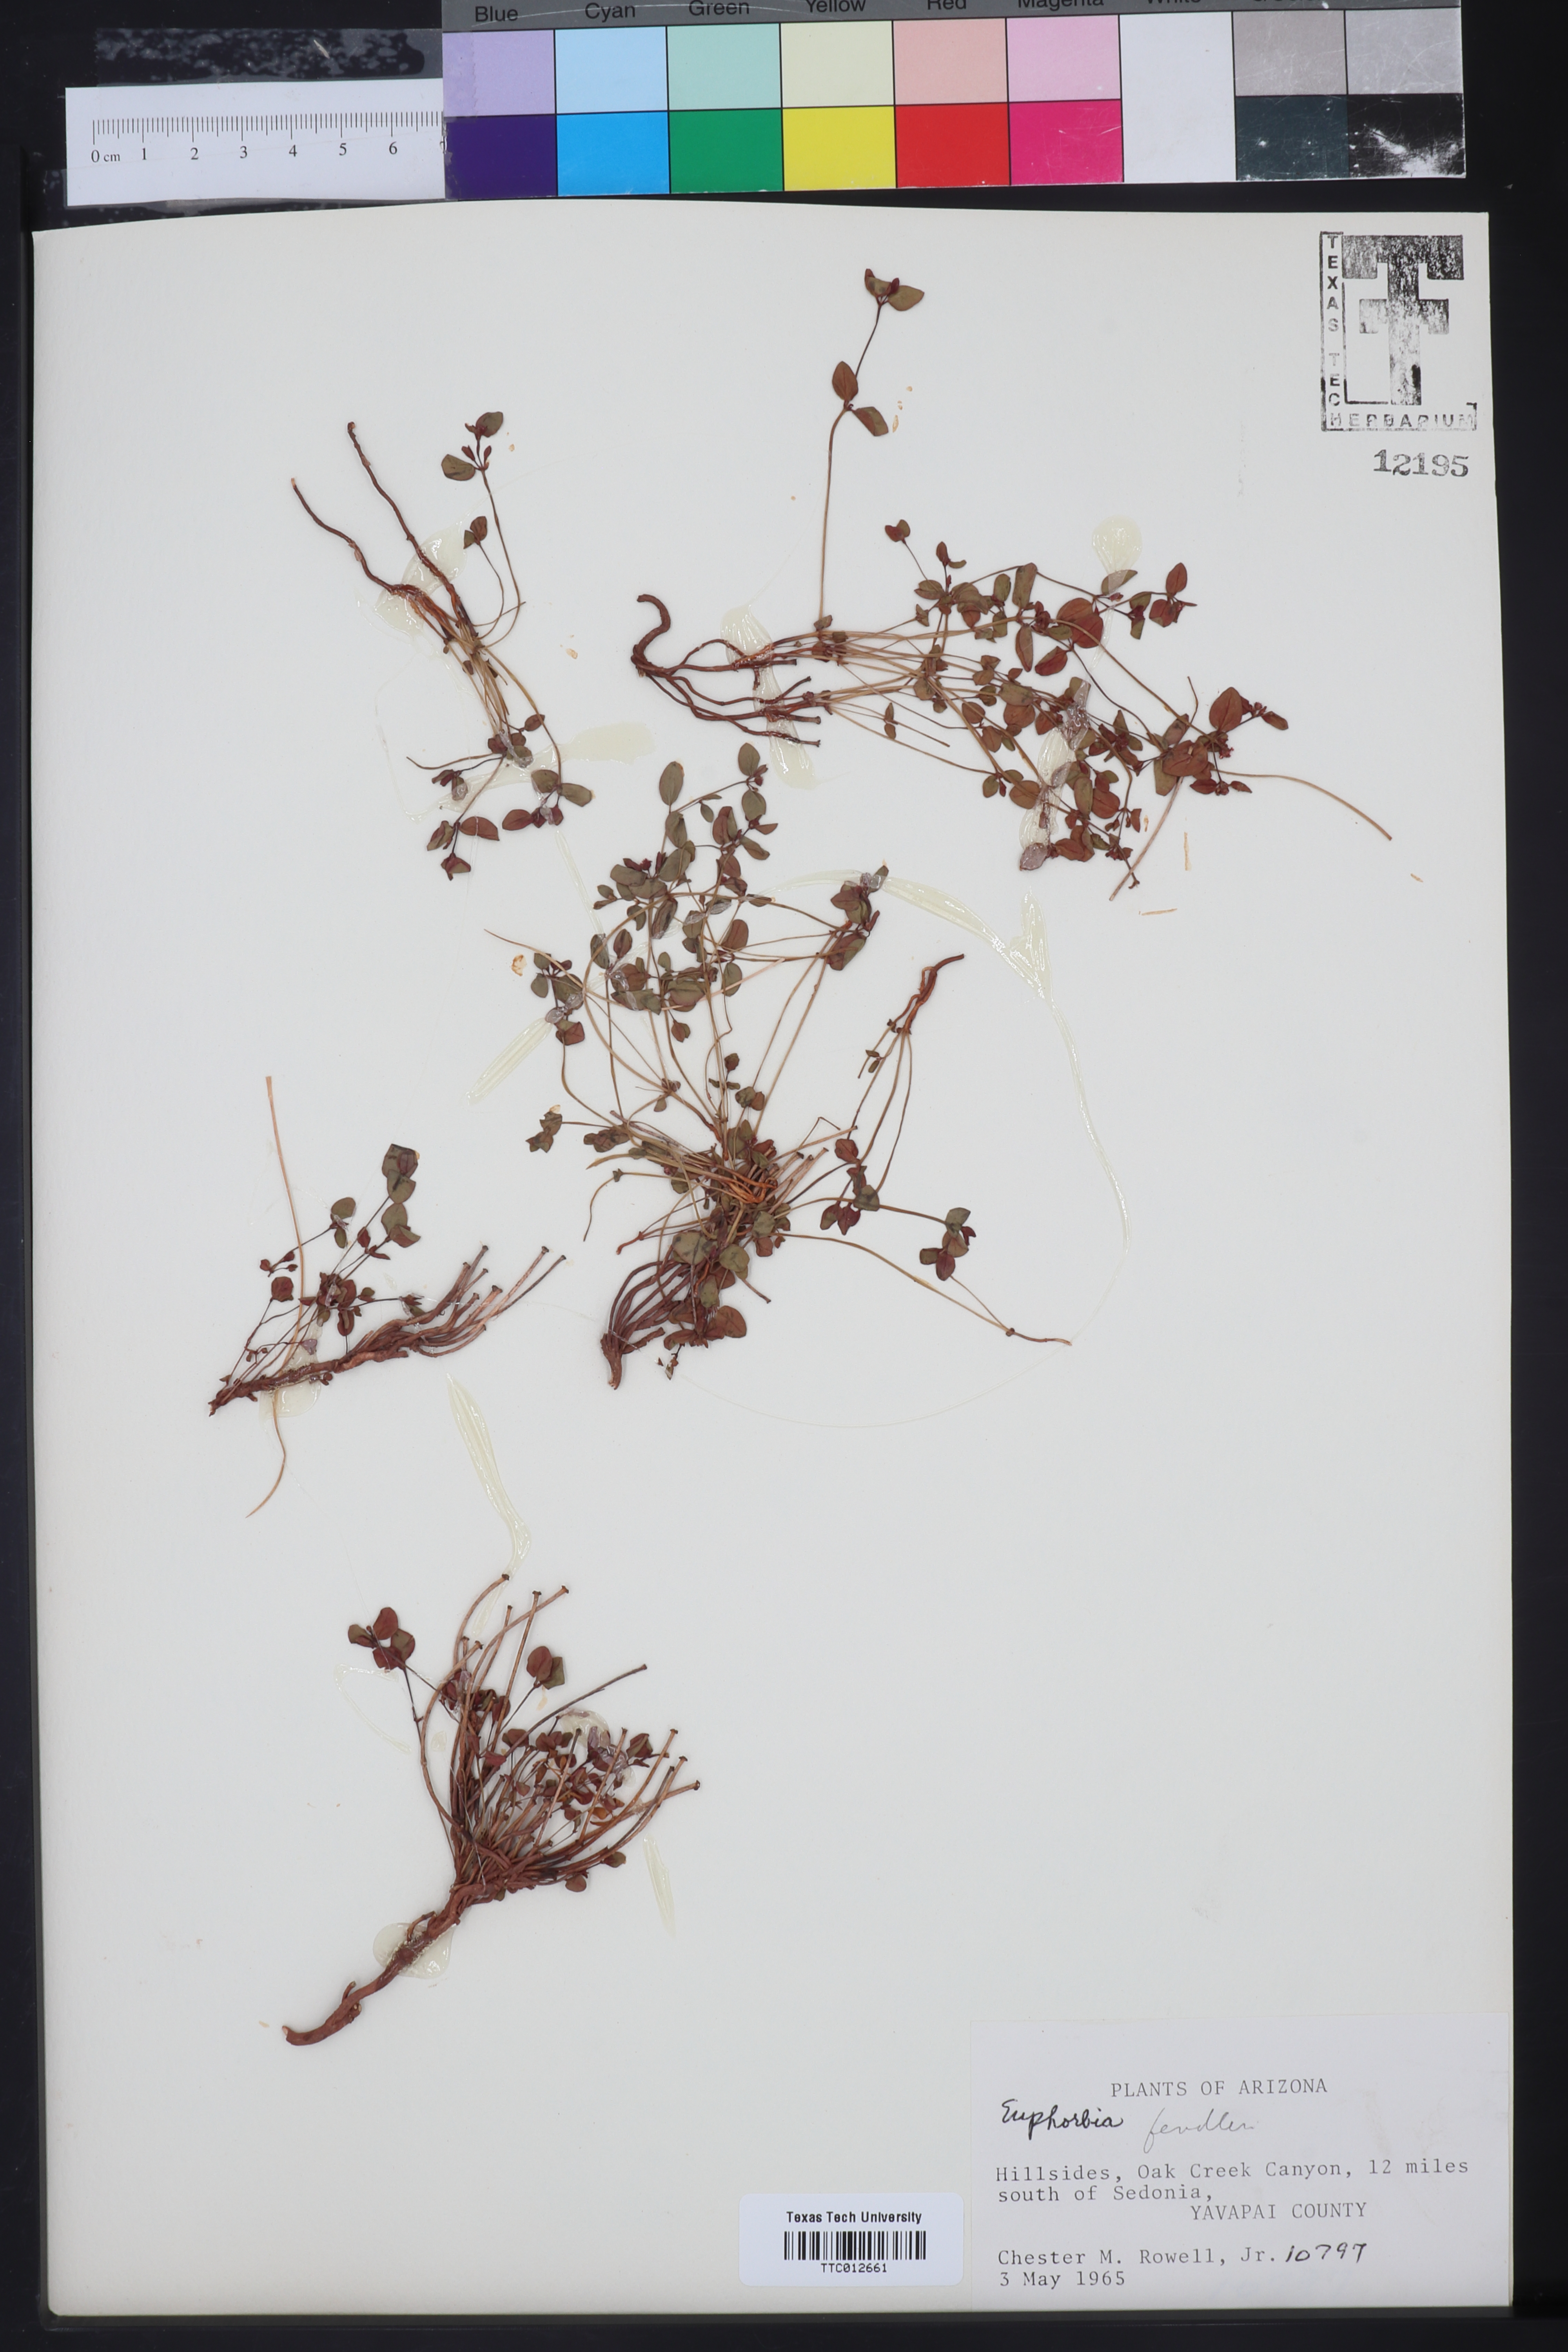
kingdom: Plantae
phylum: Tracheophyta
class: Magnoliopsida
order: Malpighiales
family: Euphorbiaceae
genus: Euphorbia
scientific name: Euphorbia fendleri
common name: Fendler's euphorbia
